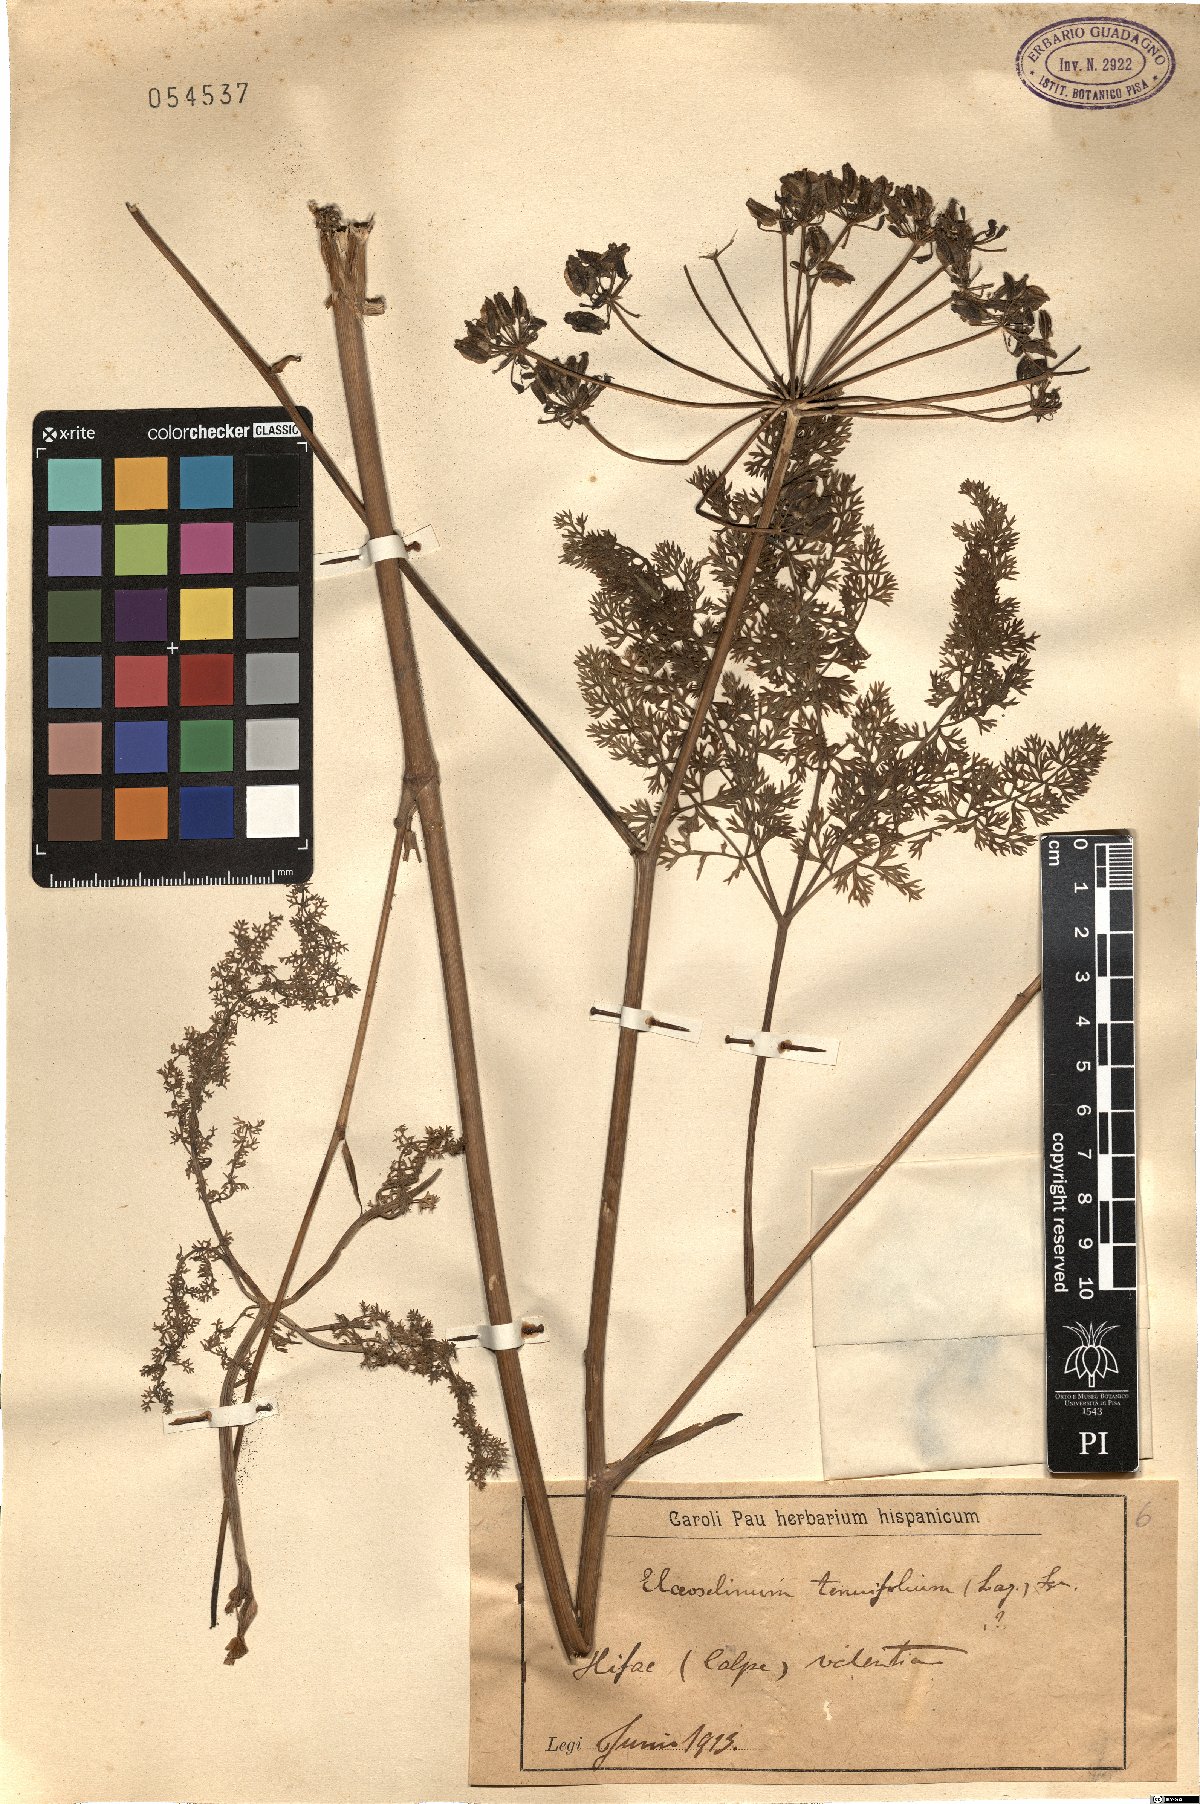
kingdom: Plantae
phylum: Tracheophyta
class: Magnoliopsida
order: Apiales
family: Apiaceae
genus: Thapsia
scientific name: Thapsia tenuifolia
